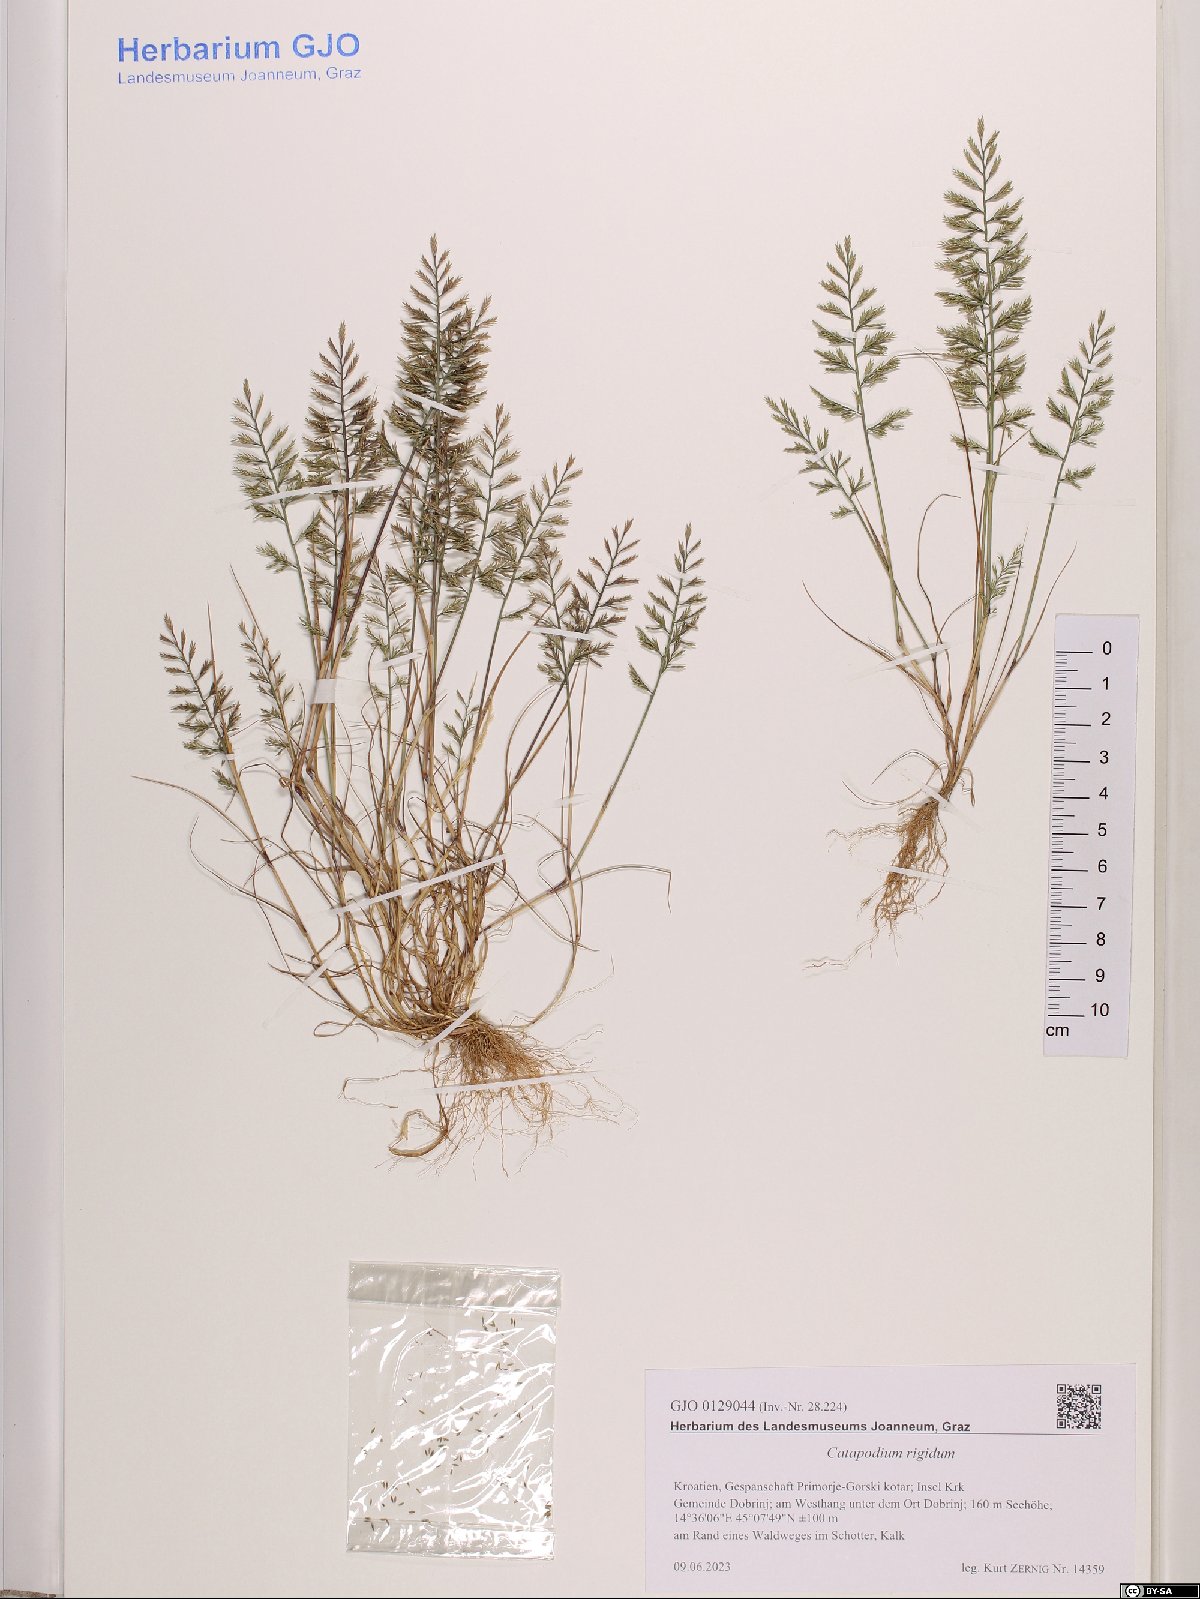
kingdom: Plantae
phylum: Tracheophyta
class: Liliopsida
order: Poales
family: Poaceae
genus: Catapodium
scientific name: Catapodium rigidum
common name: Fern-grass
